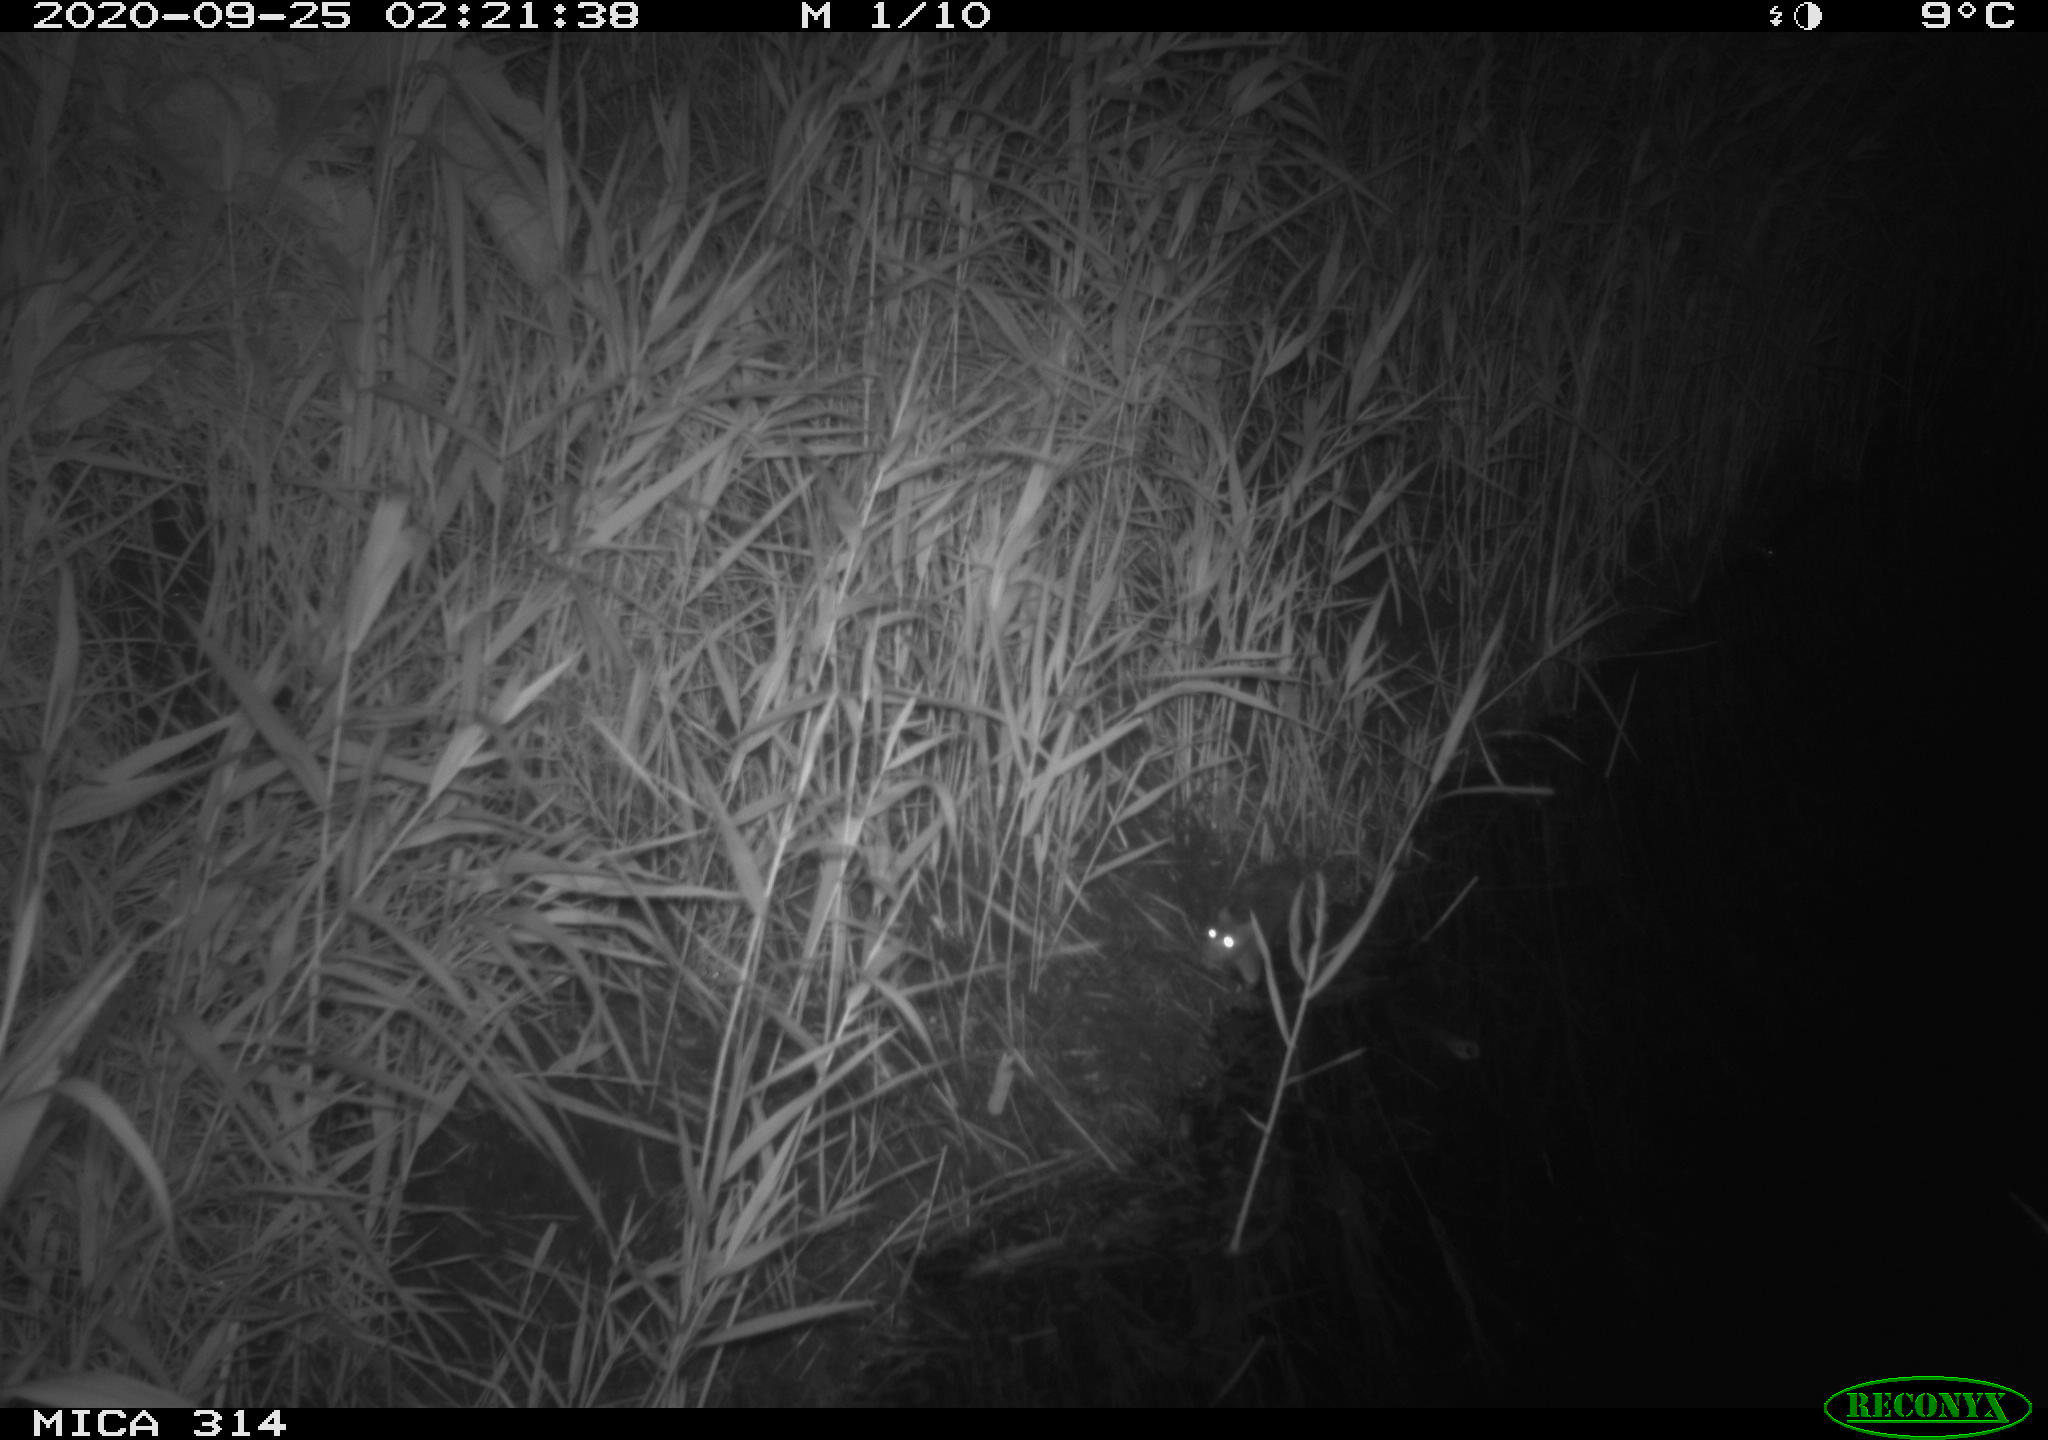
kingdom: Animalia
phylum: Chordata
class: Mammalia
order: Rodentia
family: Muridae
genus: Rattus
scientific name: Rattus norvegicus
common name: Brown rat
